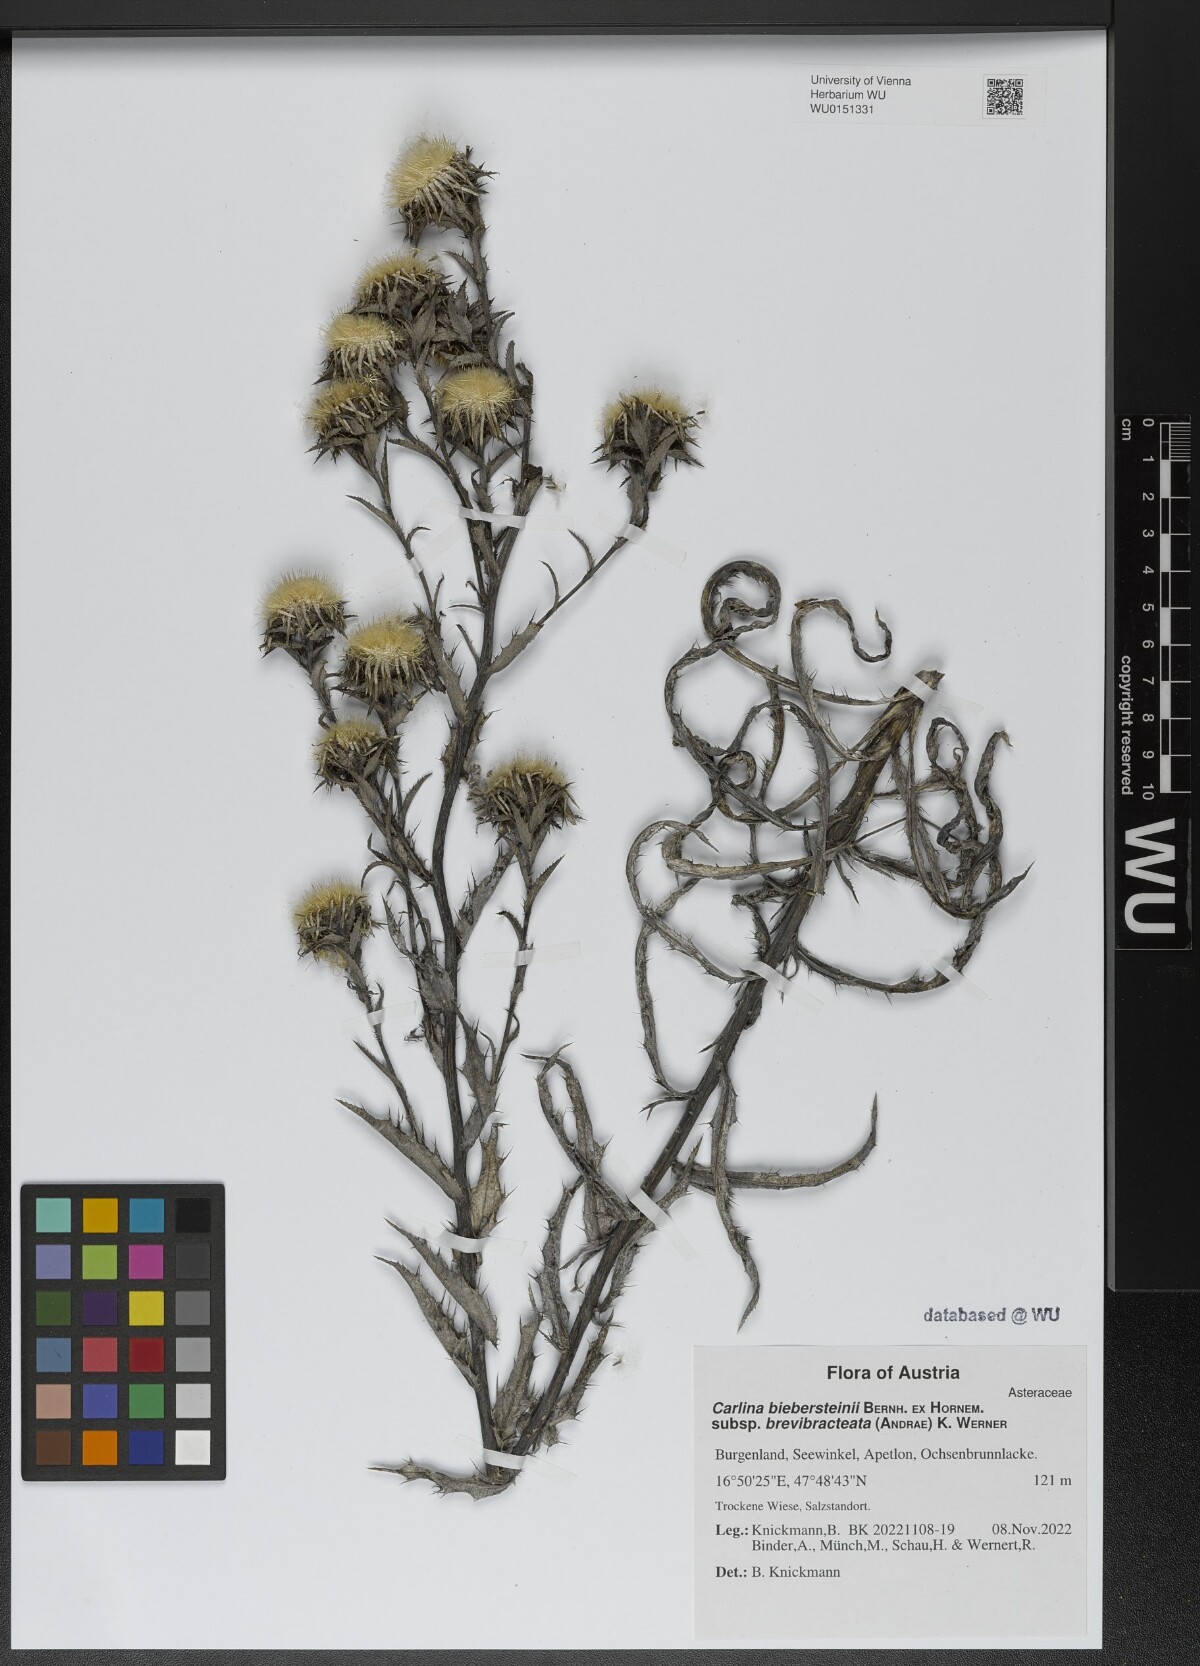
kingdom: Plantae
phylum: Tracheophyta
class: Magnoliopsida
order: Asterales
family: Asteraceae
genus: Carlina
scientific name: Carlina biebersteinii
